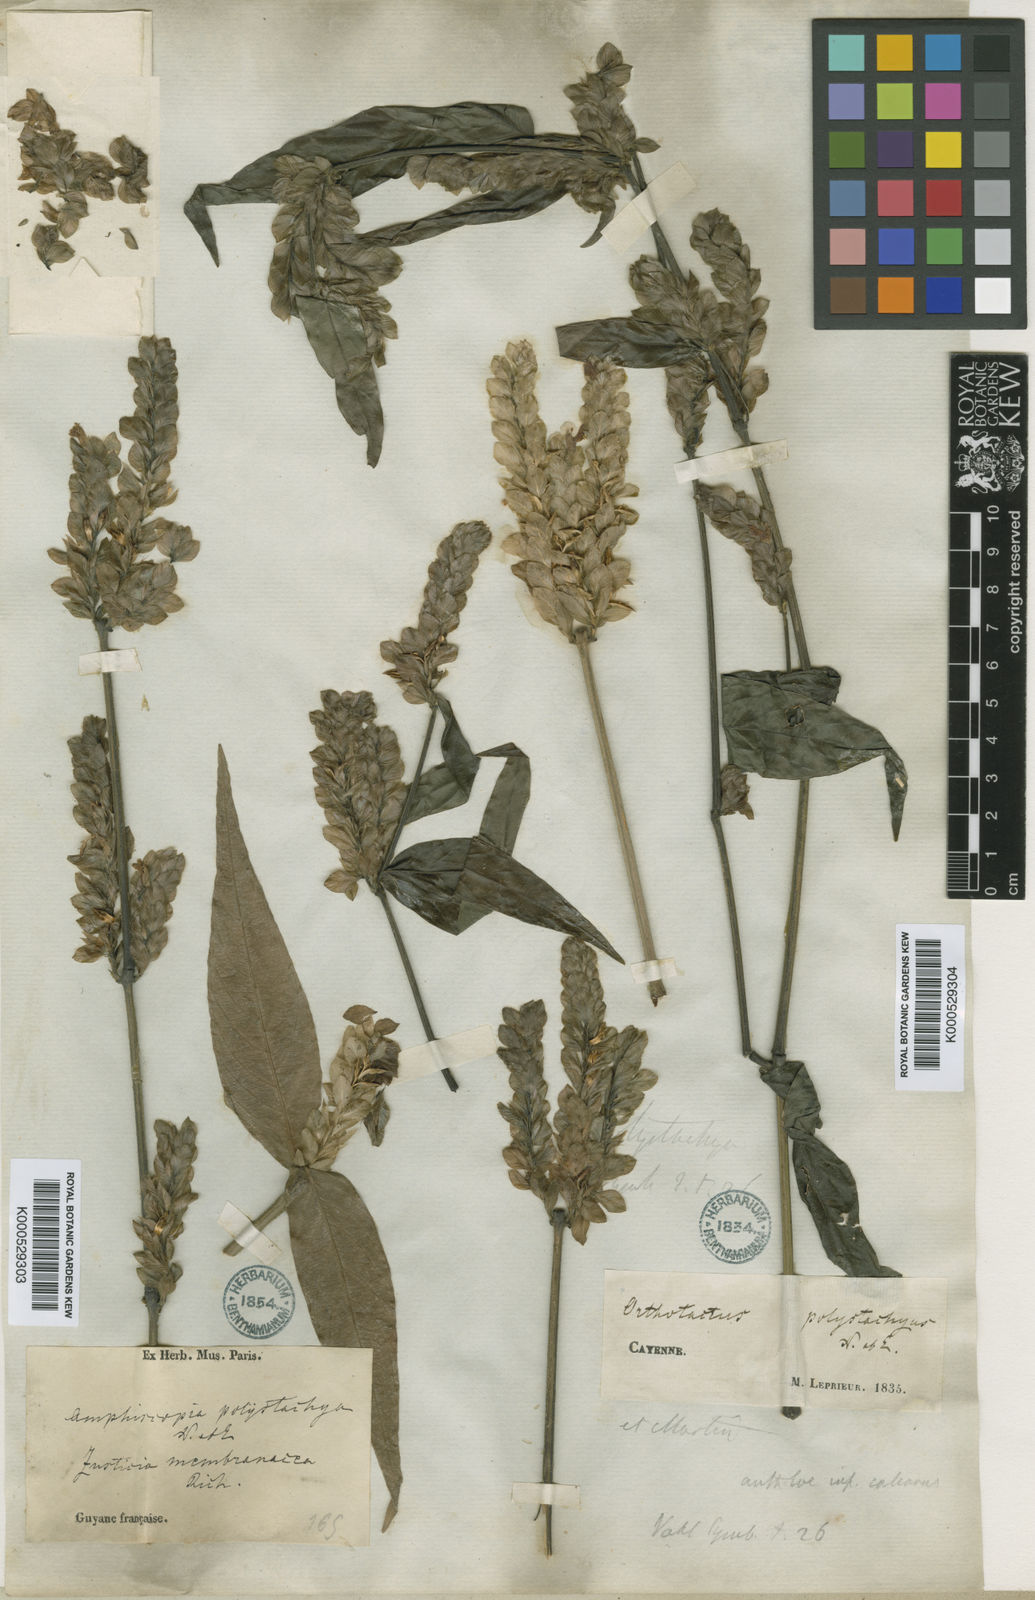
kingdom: Plantae
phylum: Tracheophyta
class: Magnoliopsida
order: Lamiales
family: Acanthaceae
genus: Justicia
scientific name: Justicia polystachya
